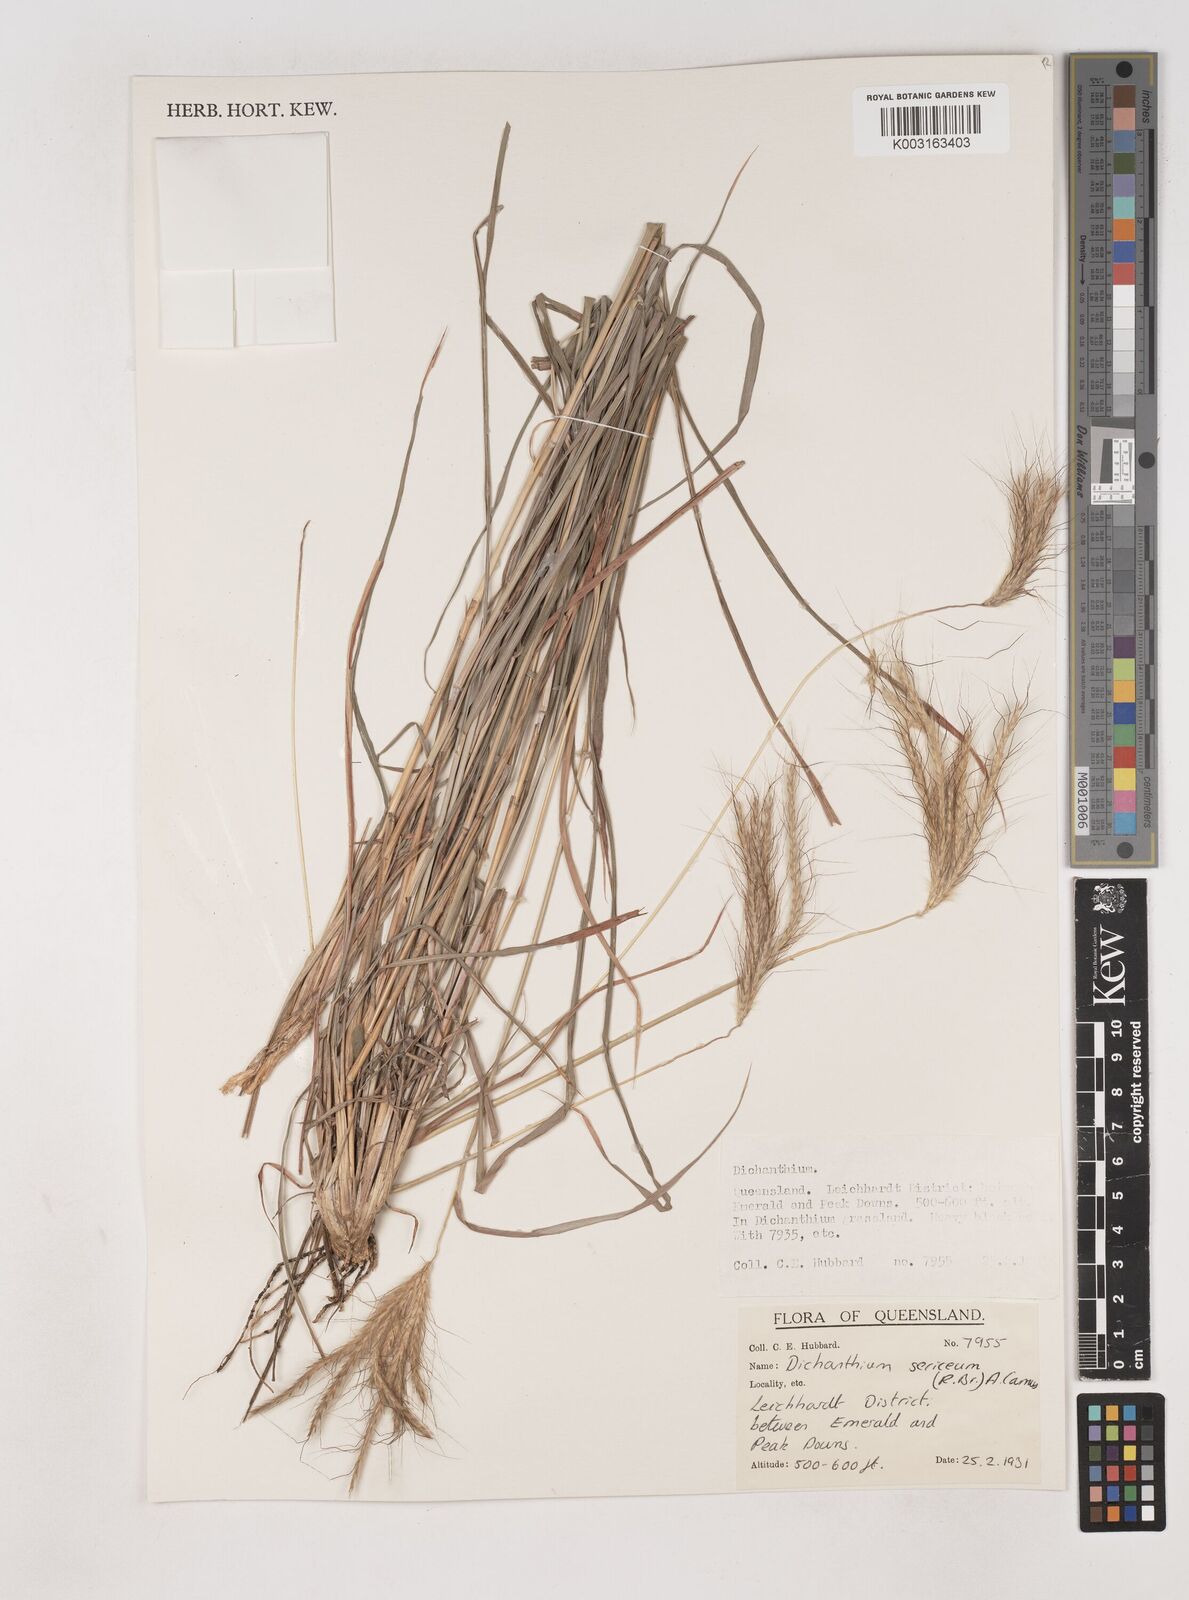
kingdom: Plantae
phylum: Tracheophyta
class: Liliopsida
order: Poales
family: Poaceae
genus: Dichanthium
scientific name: Dichanthium sericeum
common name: Silky bluestem
